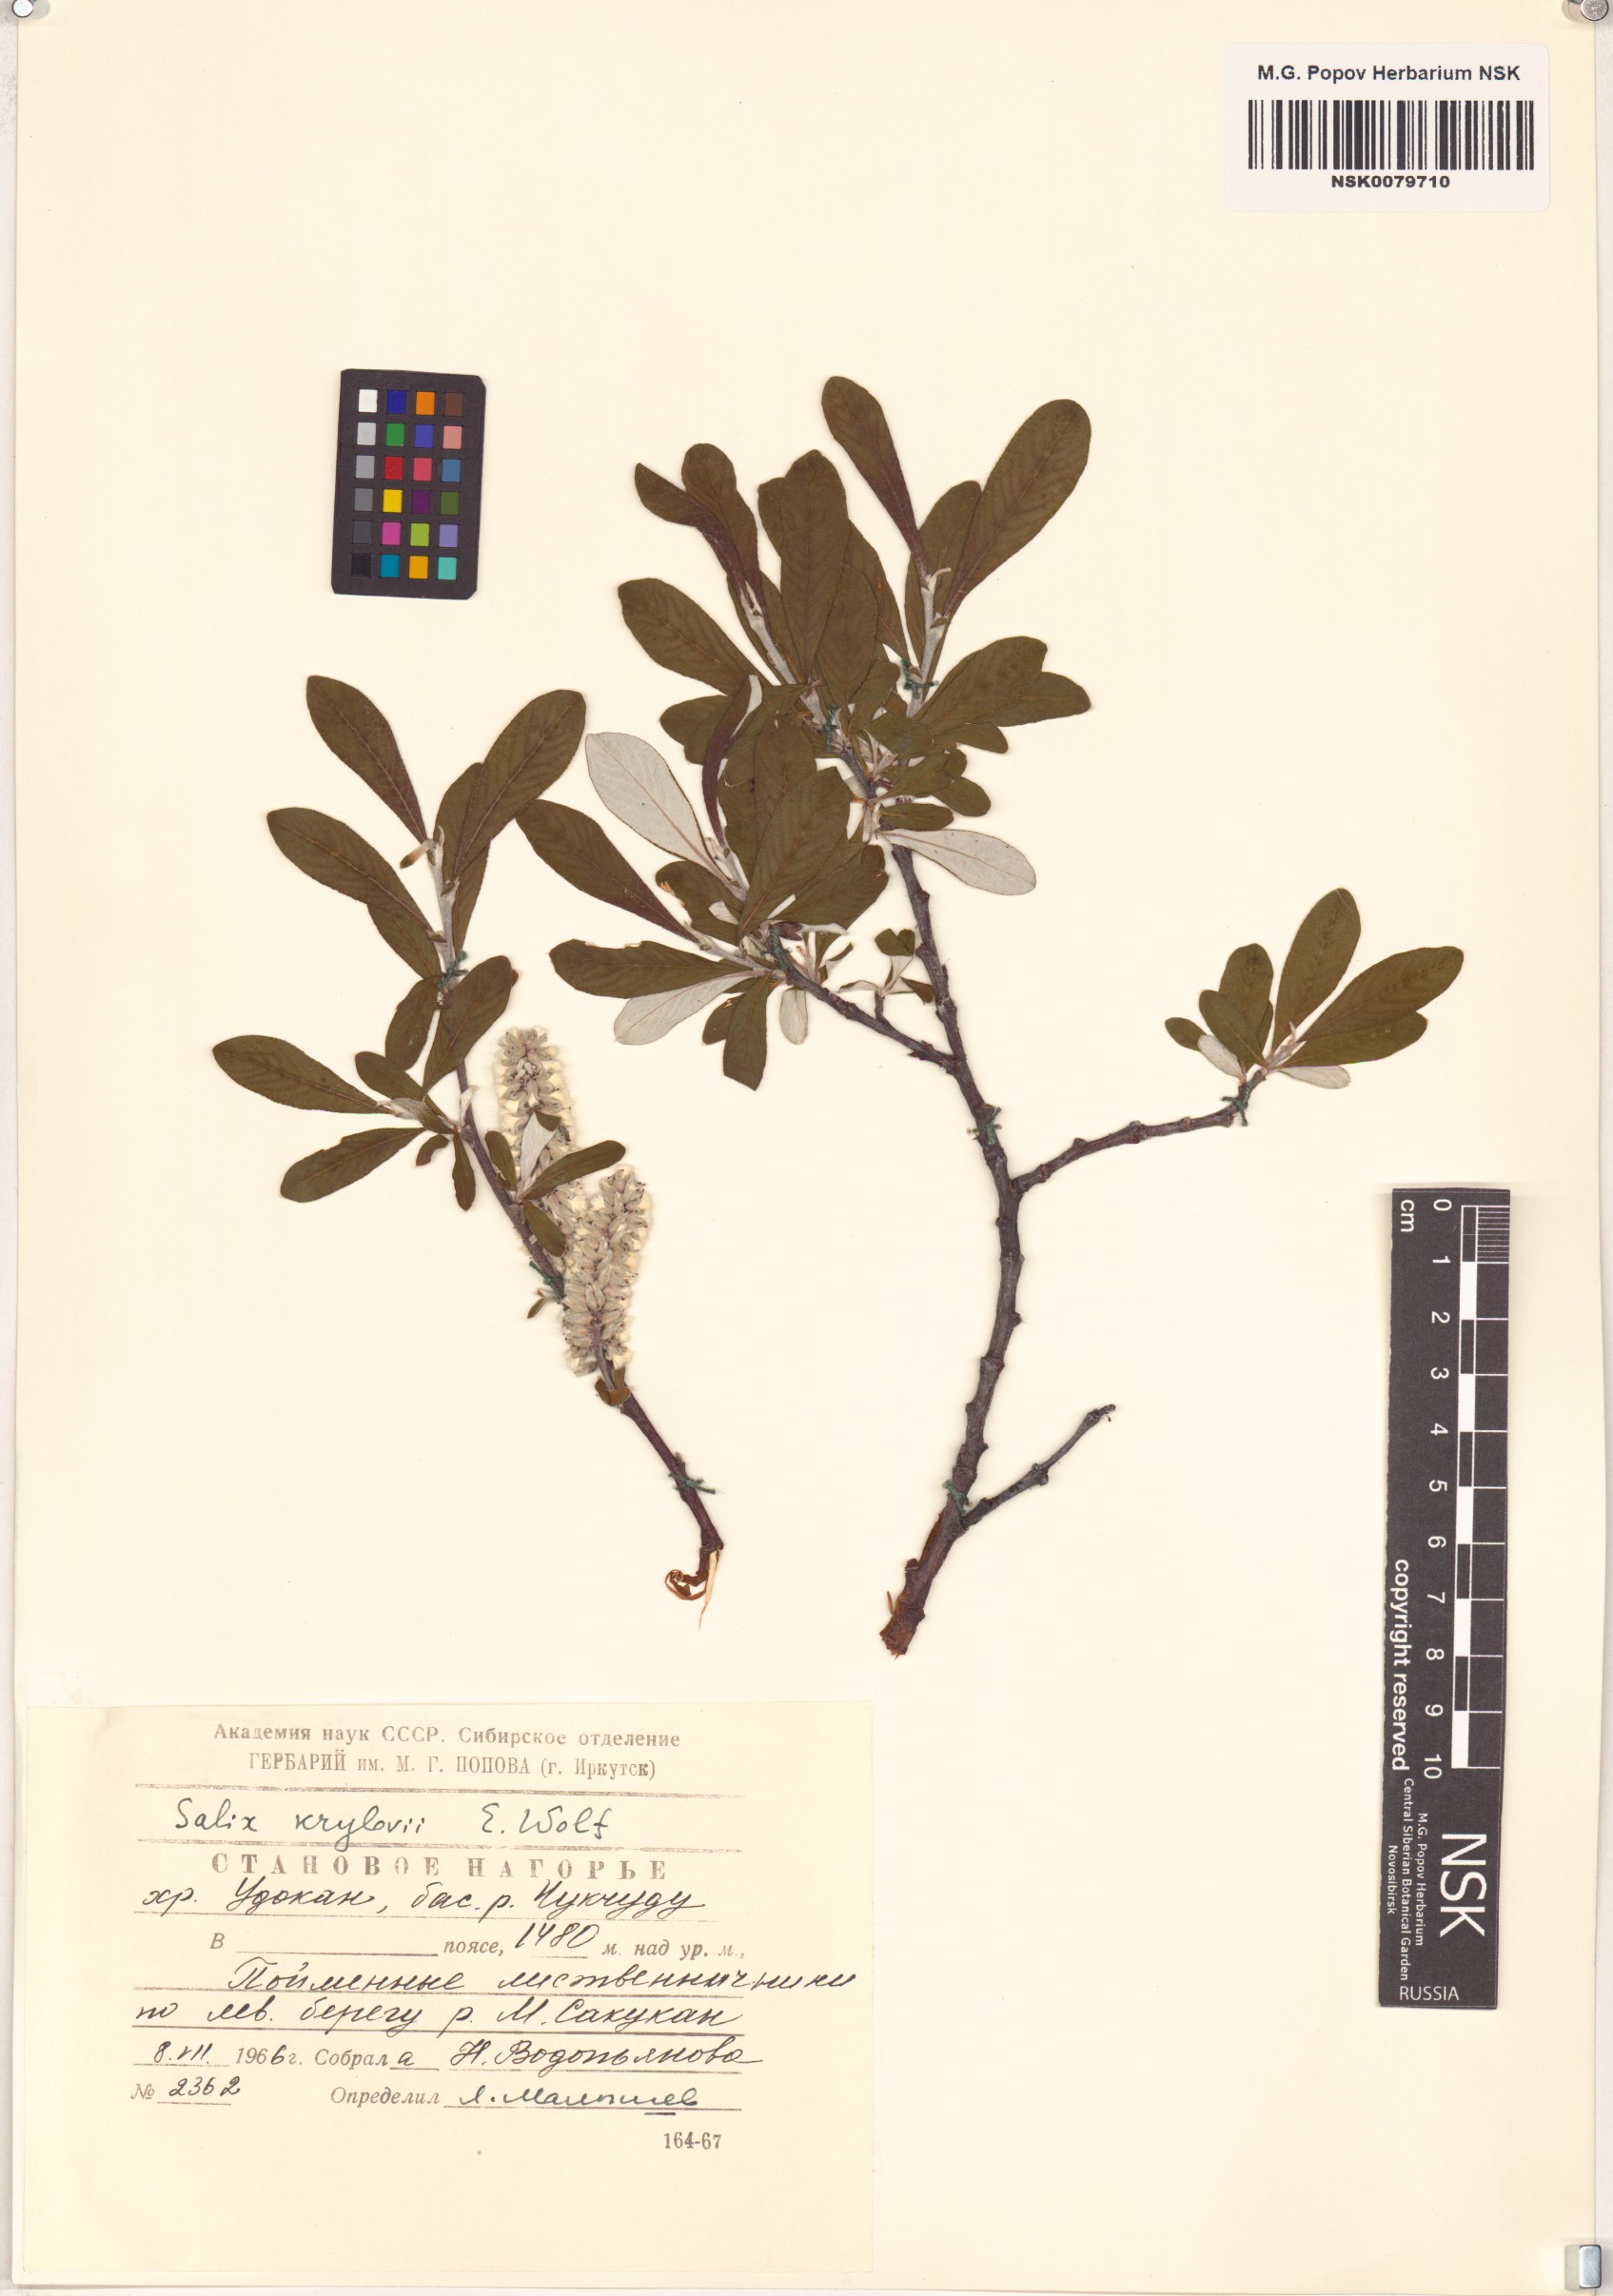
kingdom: Plantae
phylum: Tracheophyta
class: Magnoliopsida
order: Malpighiales
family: Salicaceae
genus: Salix
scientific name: Salix krylovii
